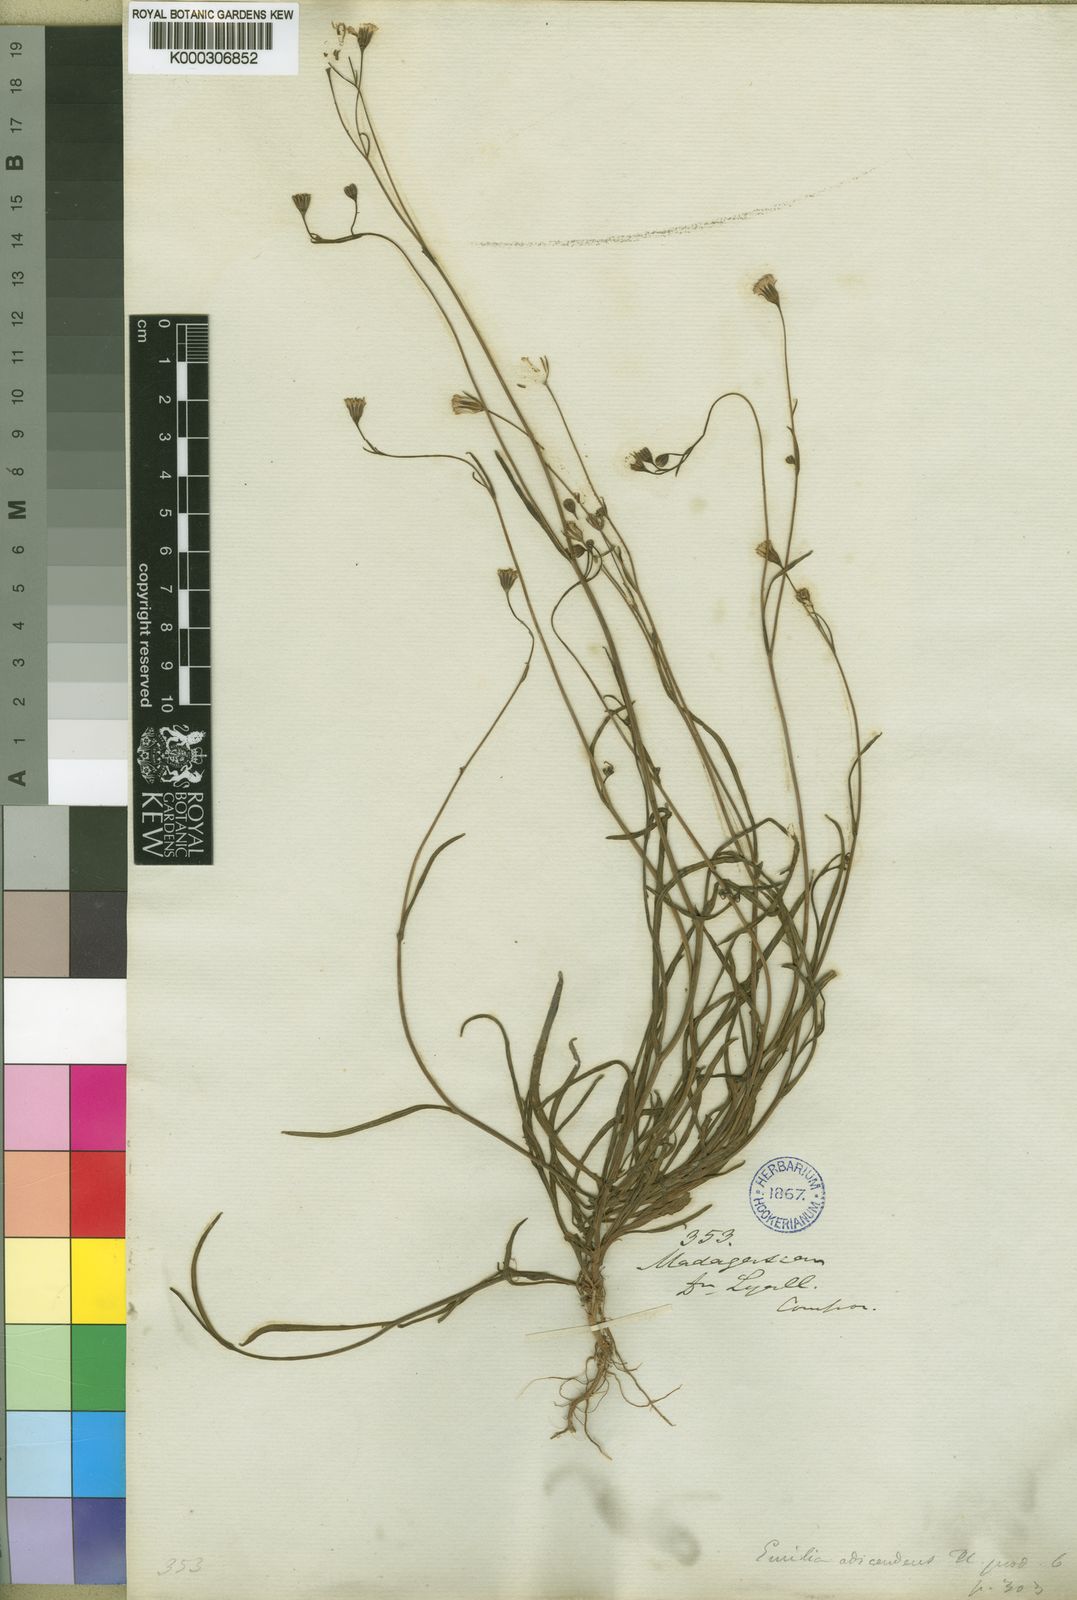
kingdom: Plantae
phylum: Tracheophyta
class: Magnoliopsida
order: Asterales
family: Asteraceae
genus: Emilia
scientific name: Emilia adscendens
